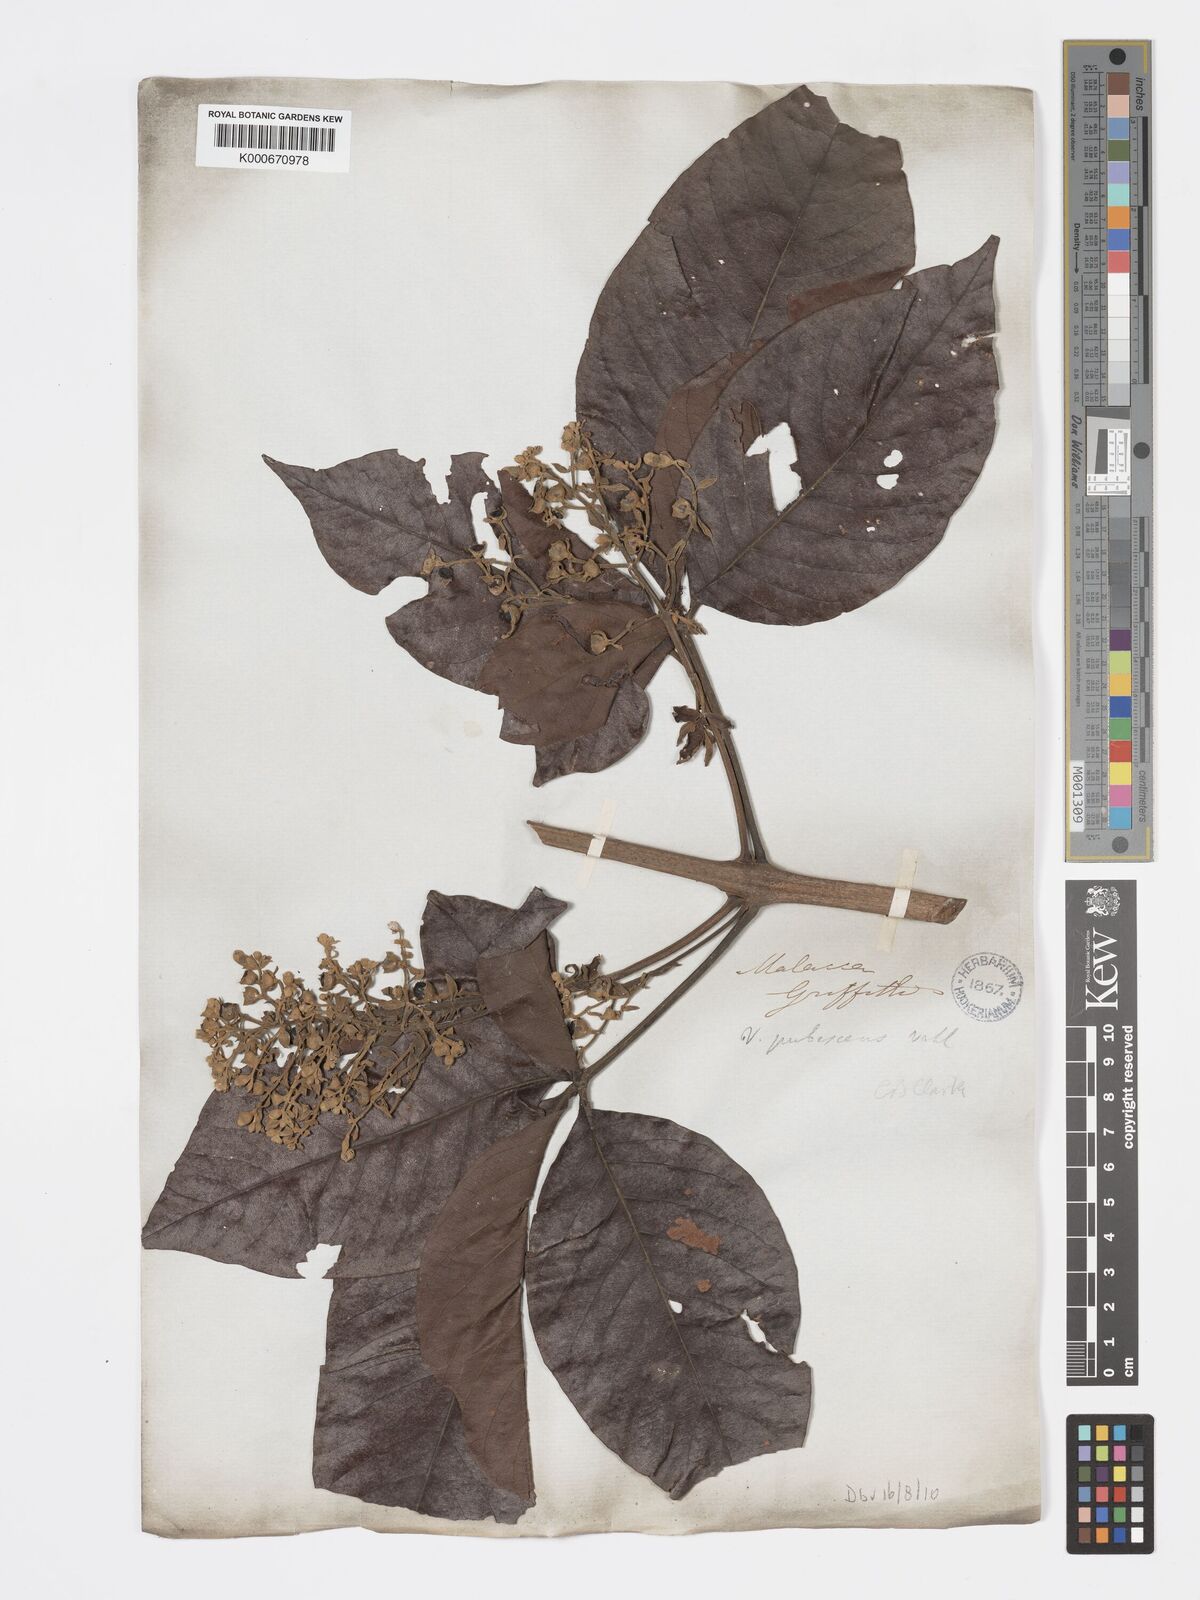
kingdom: Plantae
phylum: Tracheophyta
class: Magnoliopsida
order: Lamiales
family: Lamiaceae
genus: Vitex
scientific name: Vitex pinnata
